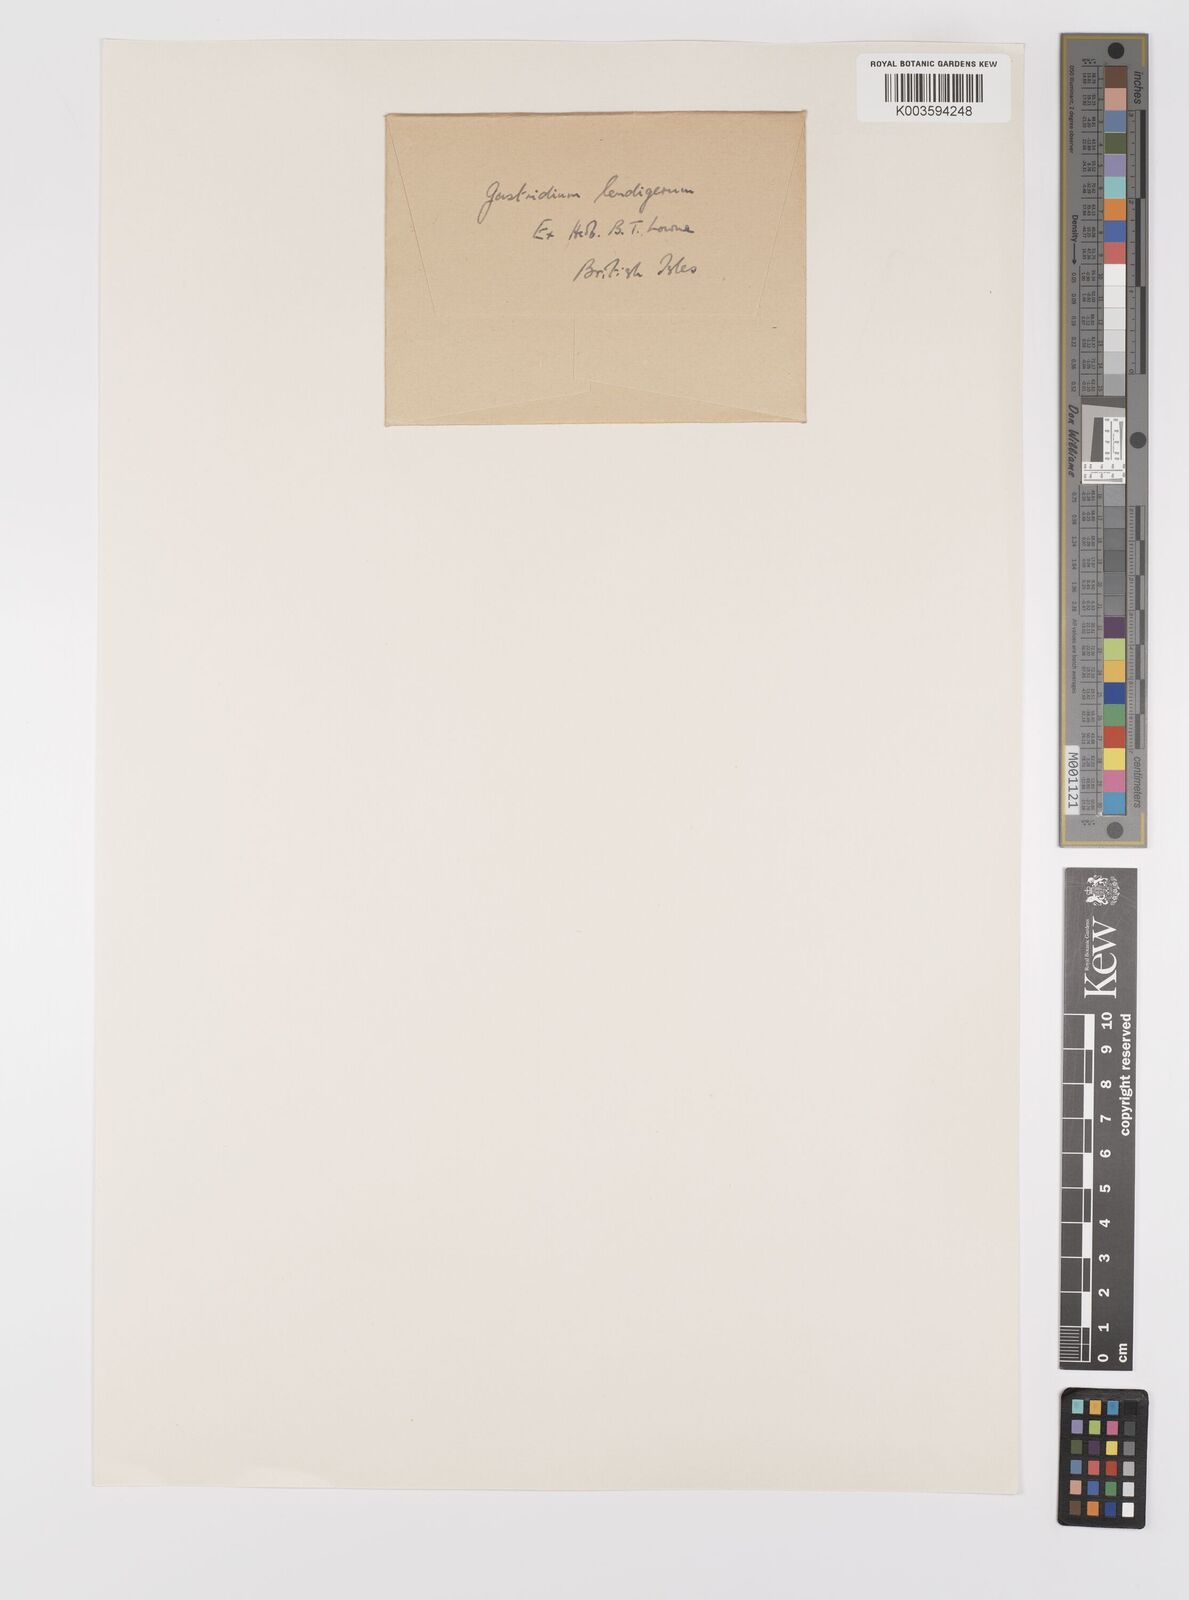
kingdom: Plantae
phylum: Tracheophyta
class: Liliopsida
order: Poales
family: Poaceae
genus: Gastridium
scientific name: Gastridium ventricosum
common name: Nit-grass
